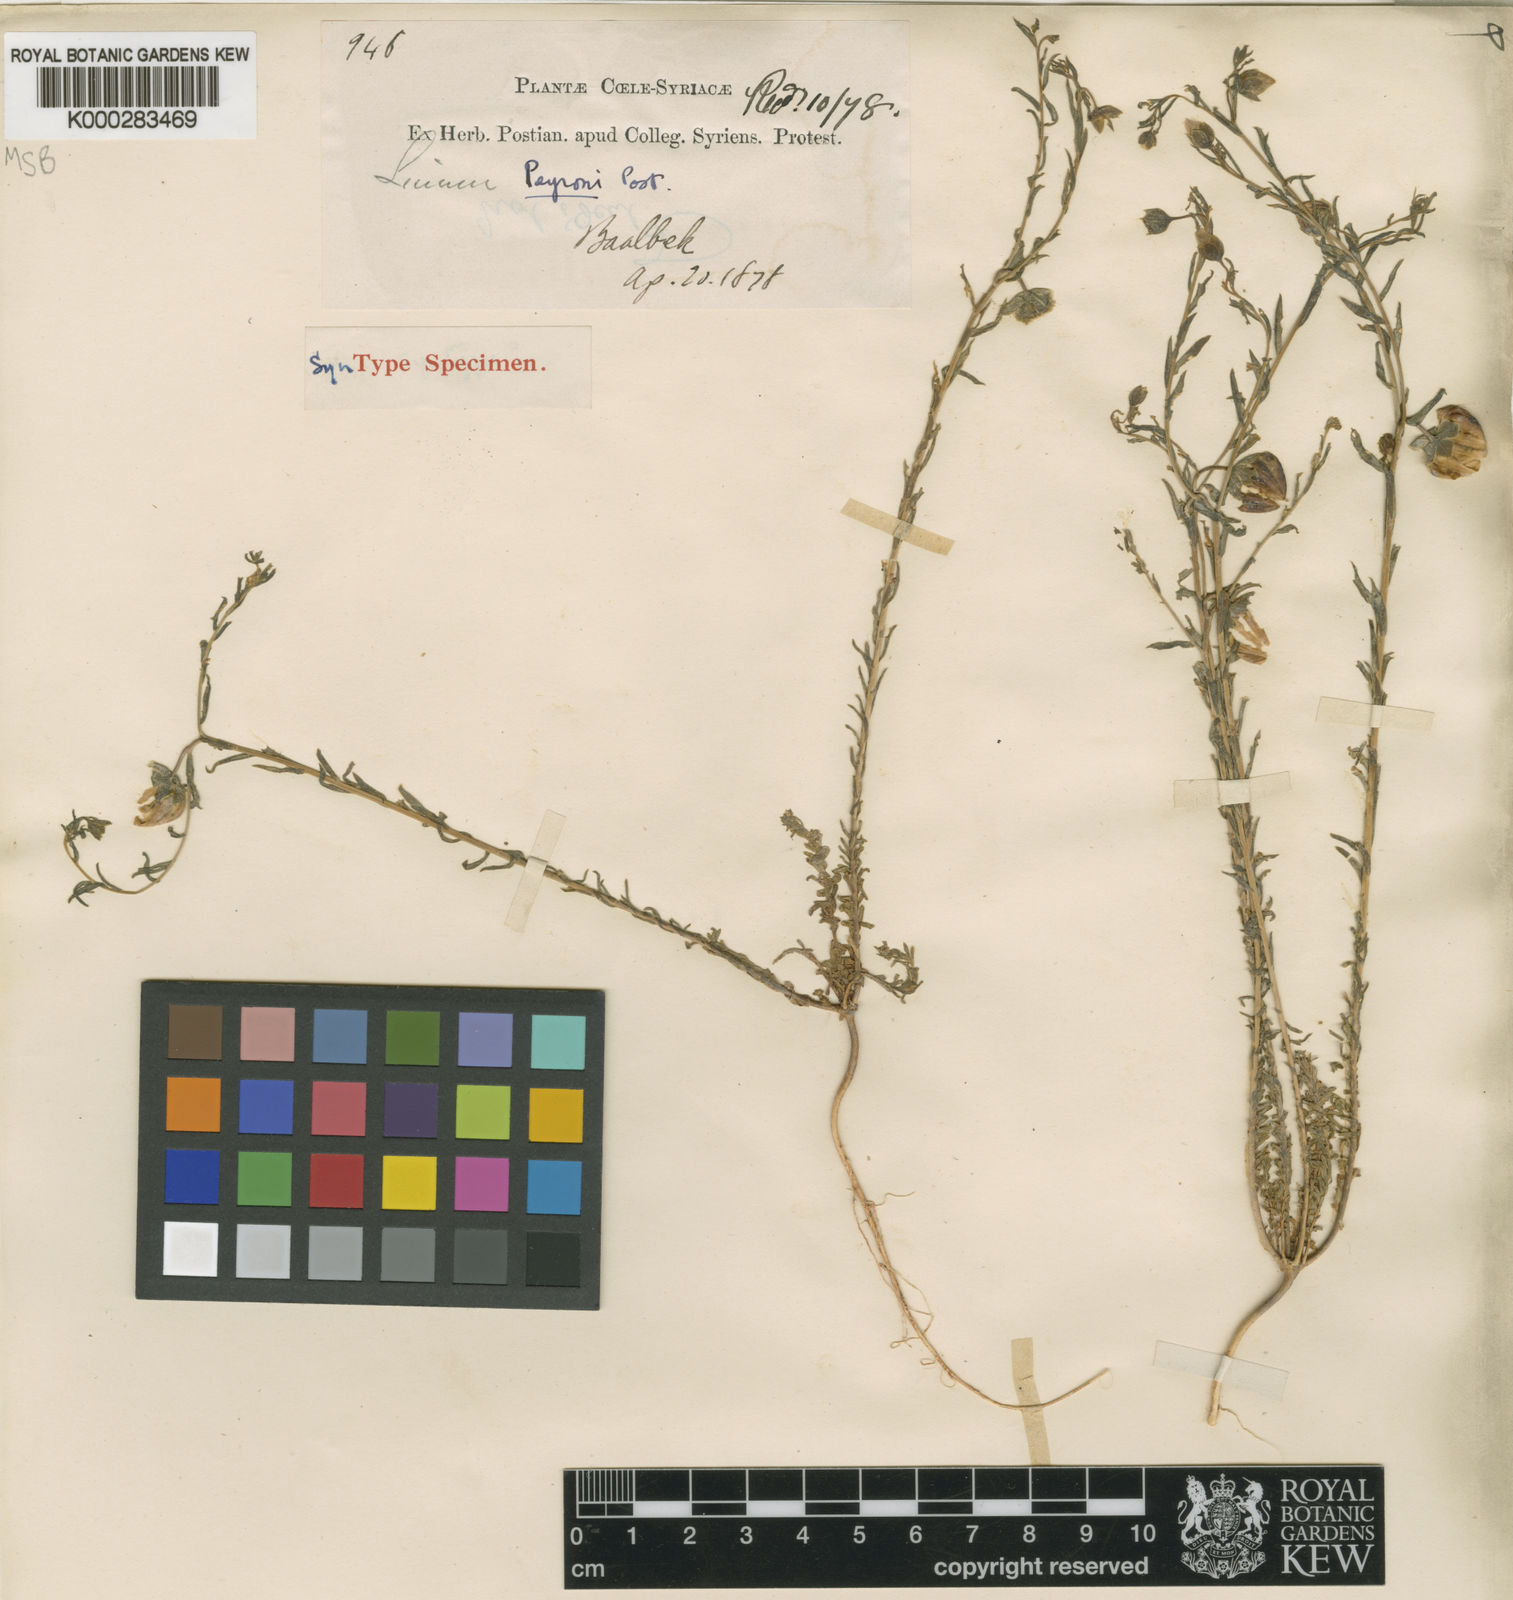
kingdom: Plantae
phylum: Tracheophyta
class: Magnoliopsida
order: Malpighiales
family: Linaceae
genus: Linum
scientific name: Linum peyronii
